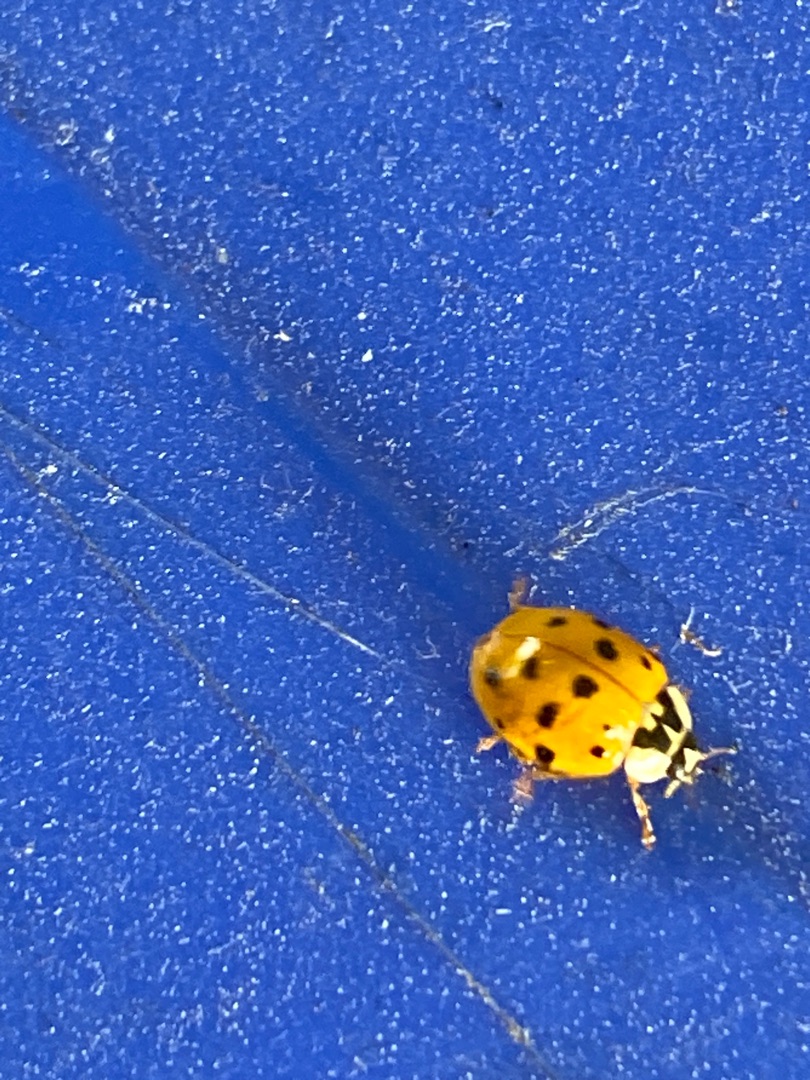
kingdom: Animalia
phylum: Arthropoda
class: Insecta
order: Coleoptera
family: Coccinellidae
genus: Harmonia
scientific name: Harmonia axyridis
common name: Harlekinmariehøne
